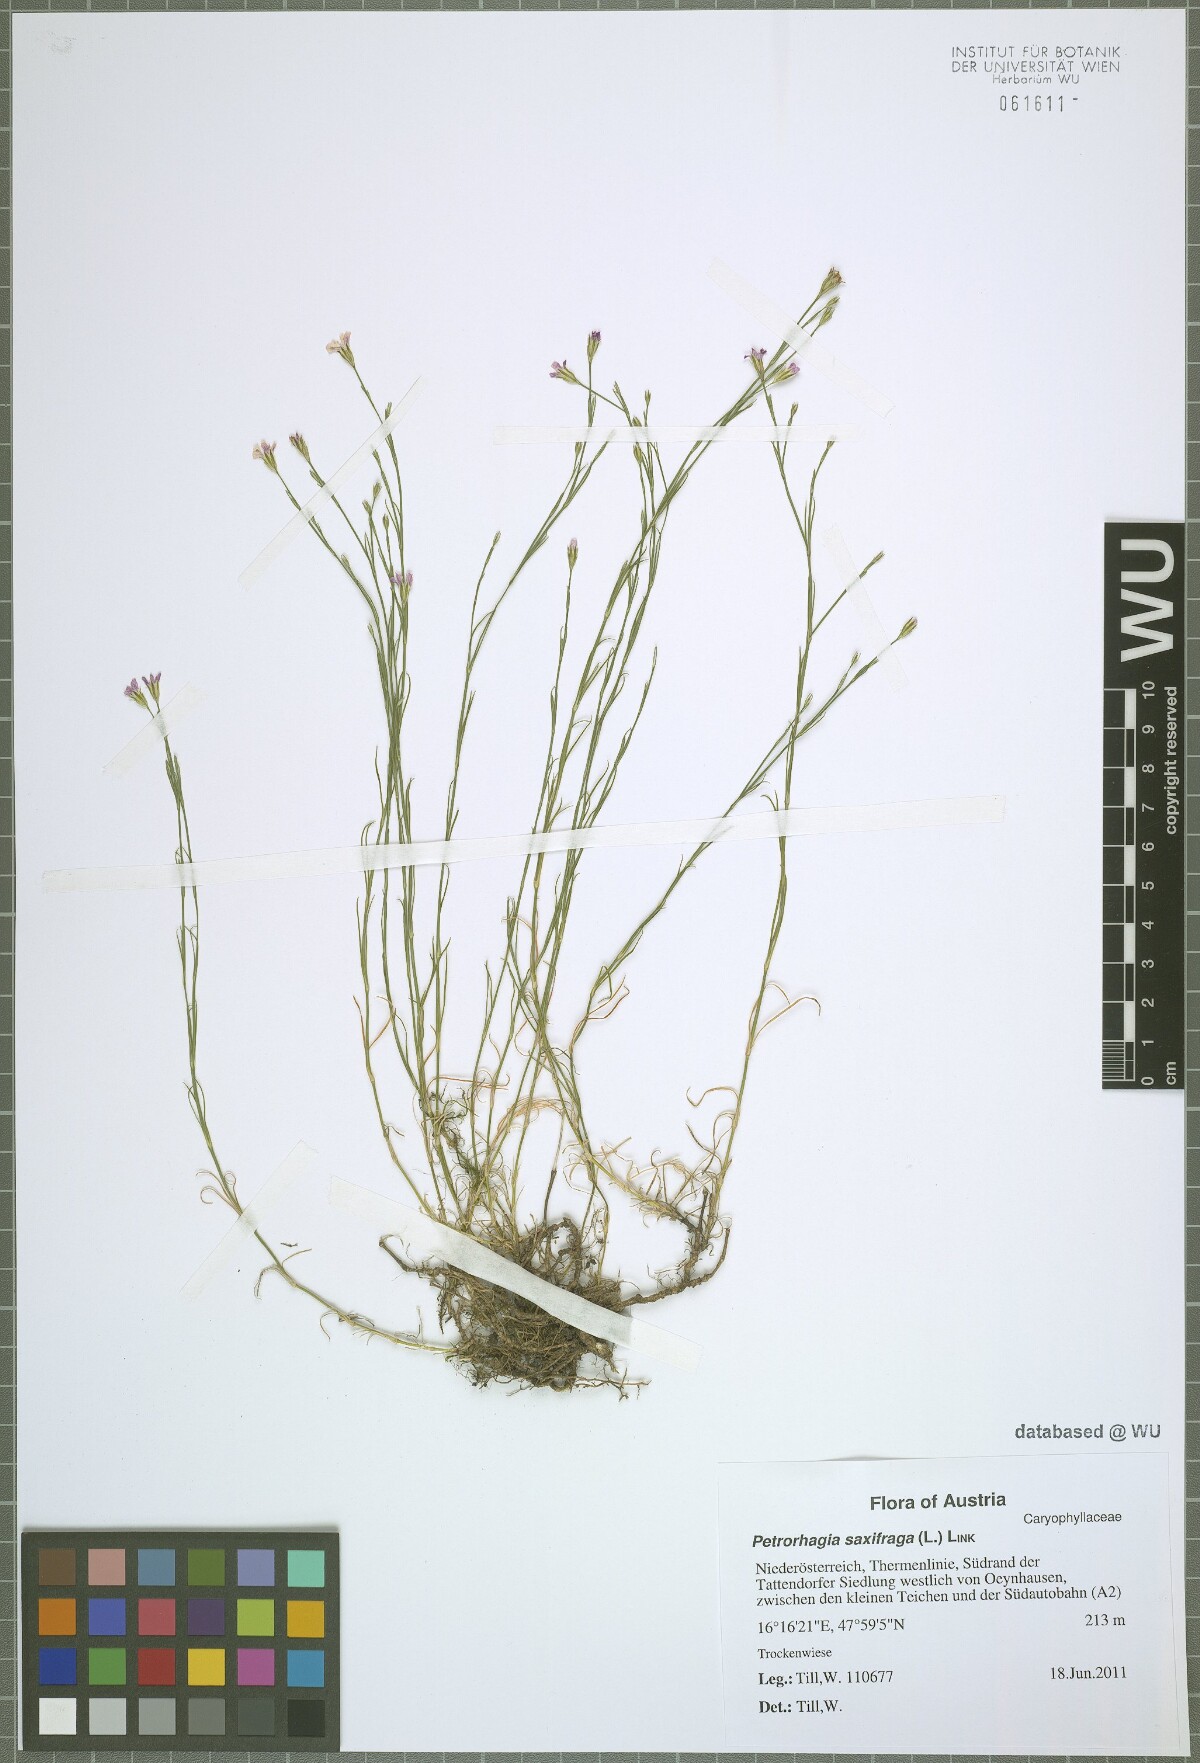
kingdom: Plantae
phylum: Tracheophyta
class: Magnoliopsida
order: Caryophyllales
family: Caryophyllaceae
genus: Petrorhagia
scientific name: Petrorhagia saxifraga
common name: Tunicflower
